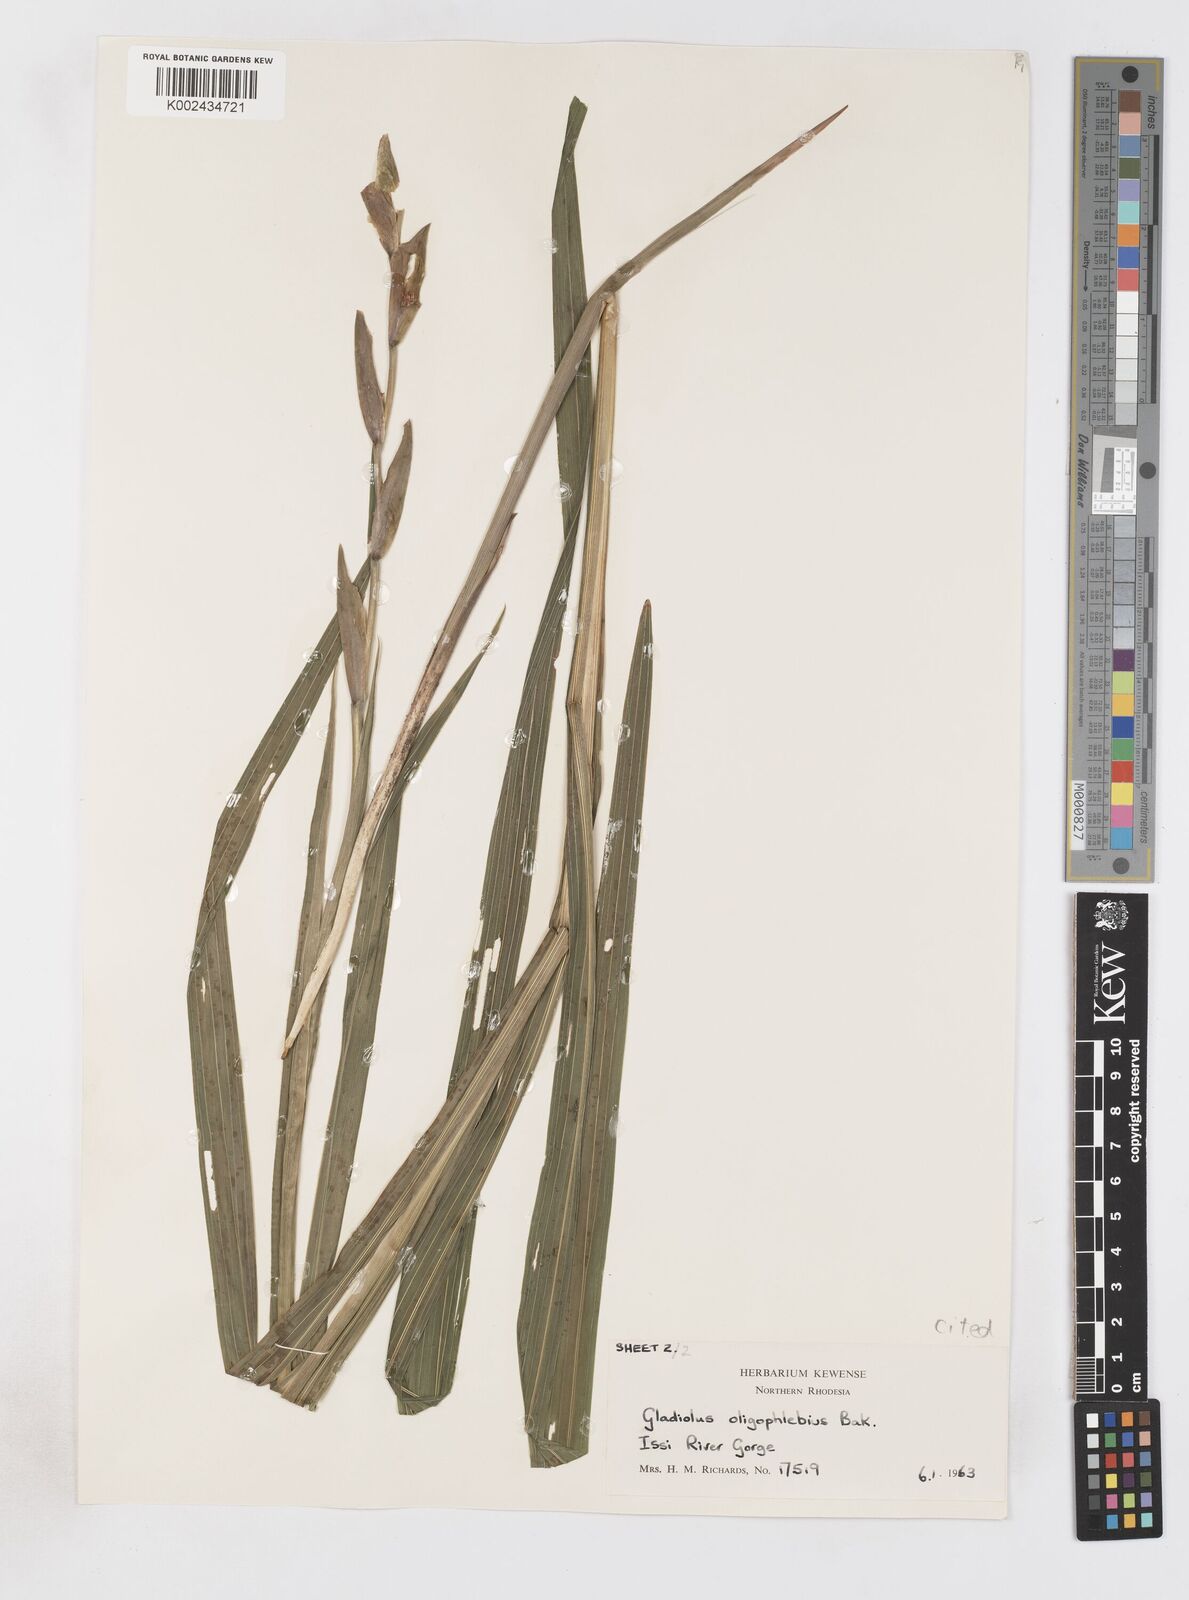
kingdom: Plantae
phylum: Tracheophyta
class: Liliopsida
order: Asparagales
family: Iridaceae
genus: Gladiolus
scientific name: Gladiolus oligophlebius
